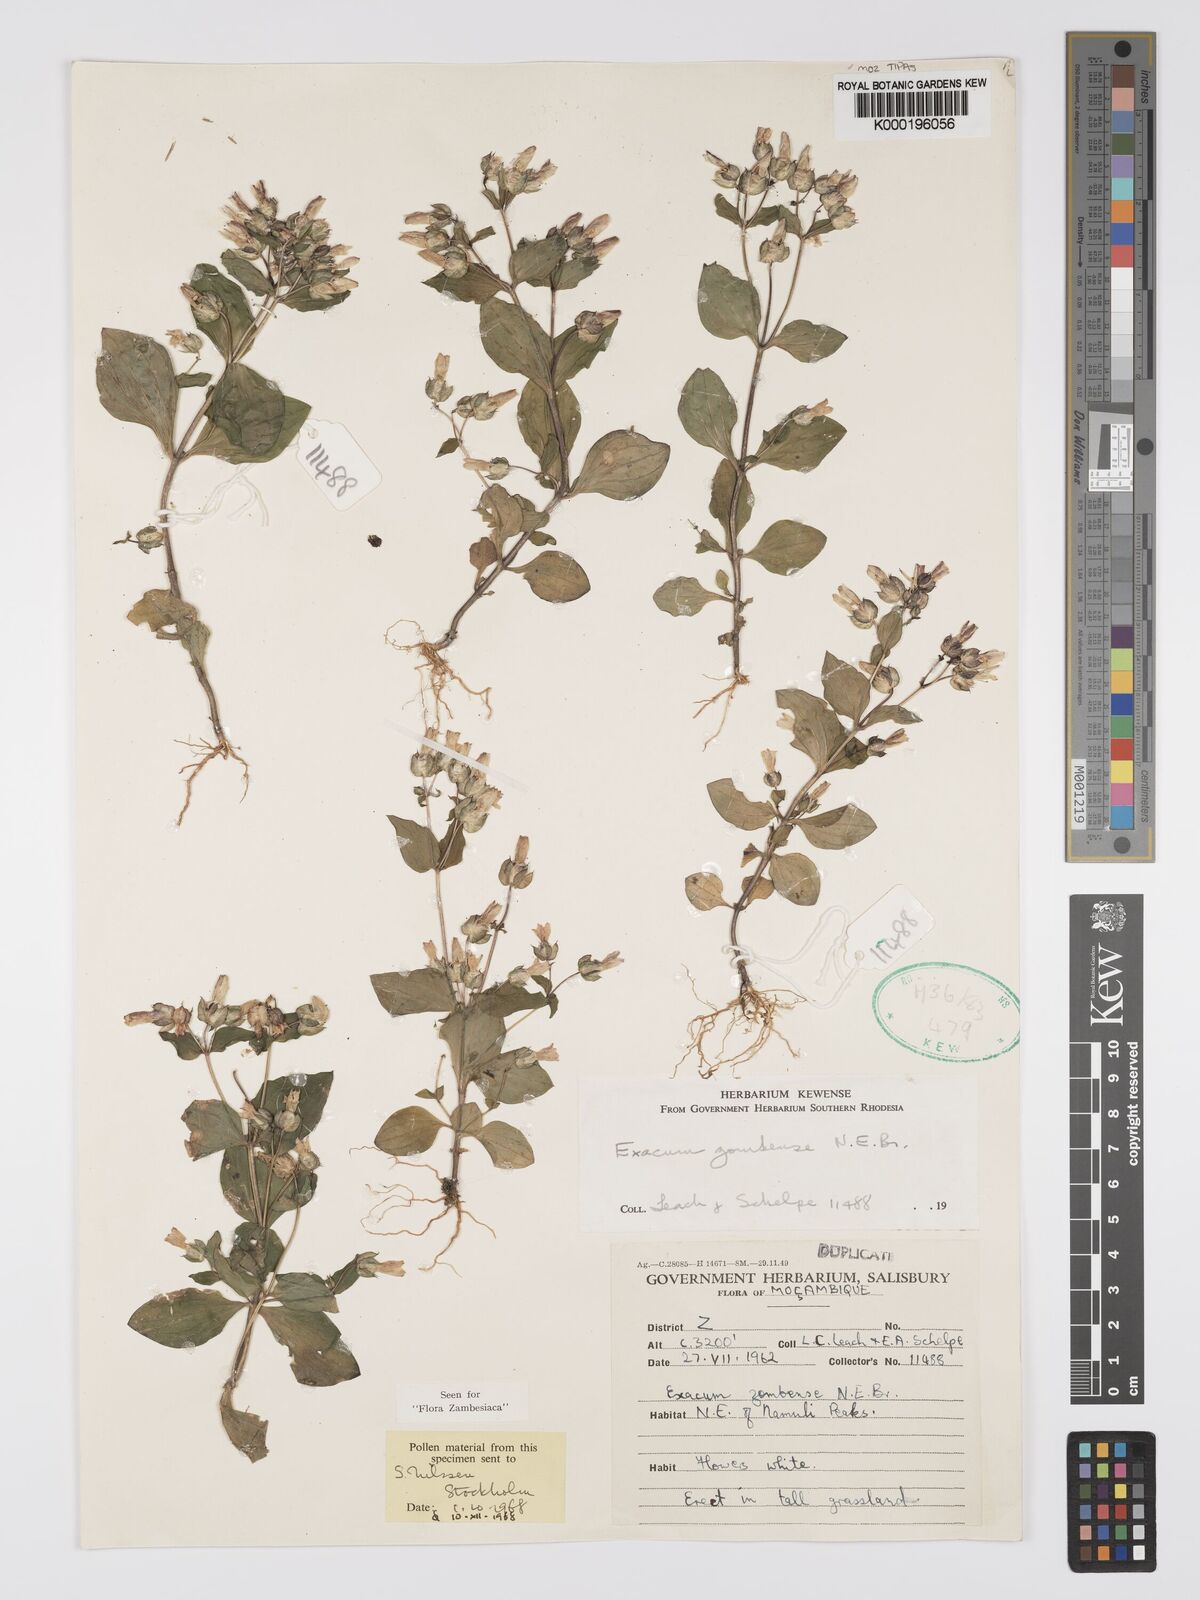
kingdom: Plantae
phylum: Tracheophyta
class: Magnoliopsida
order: Gentianales
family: Gentianaceae
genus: Exacum
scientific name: Exacum zombense
